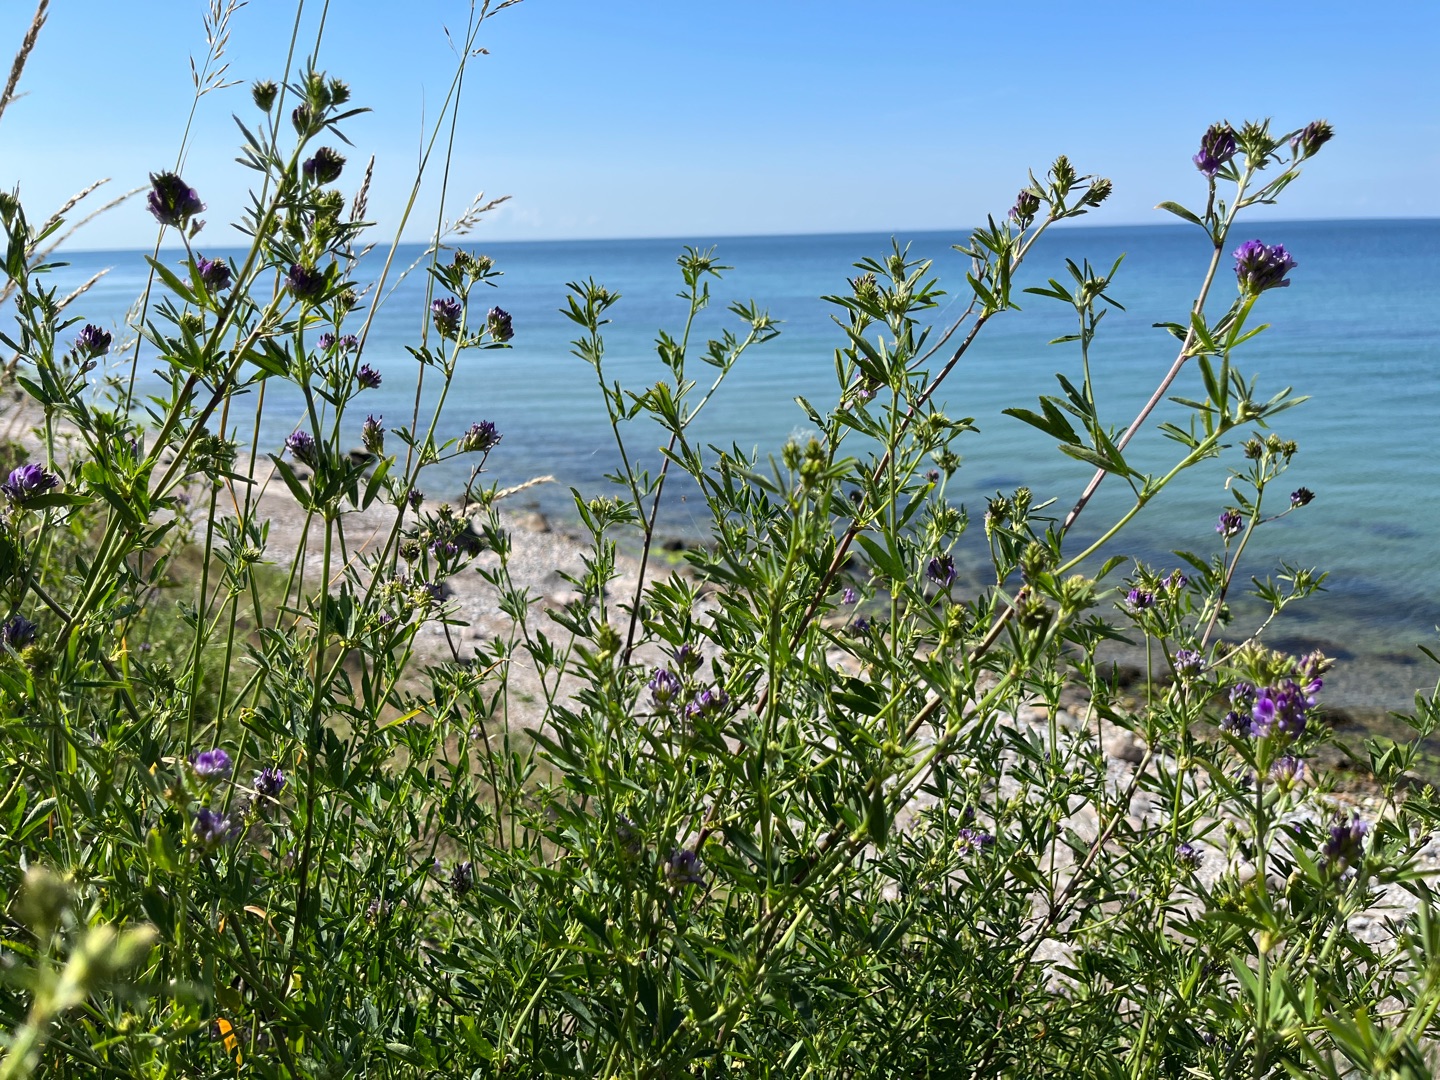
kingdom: Plantae
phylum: Tracheophyta
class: Magnoliopsida
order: Fabales
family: Fabaceae
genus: Medicago
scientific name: Medicago sativa
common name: Lucerne
